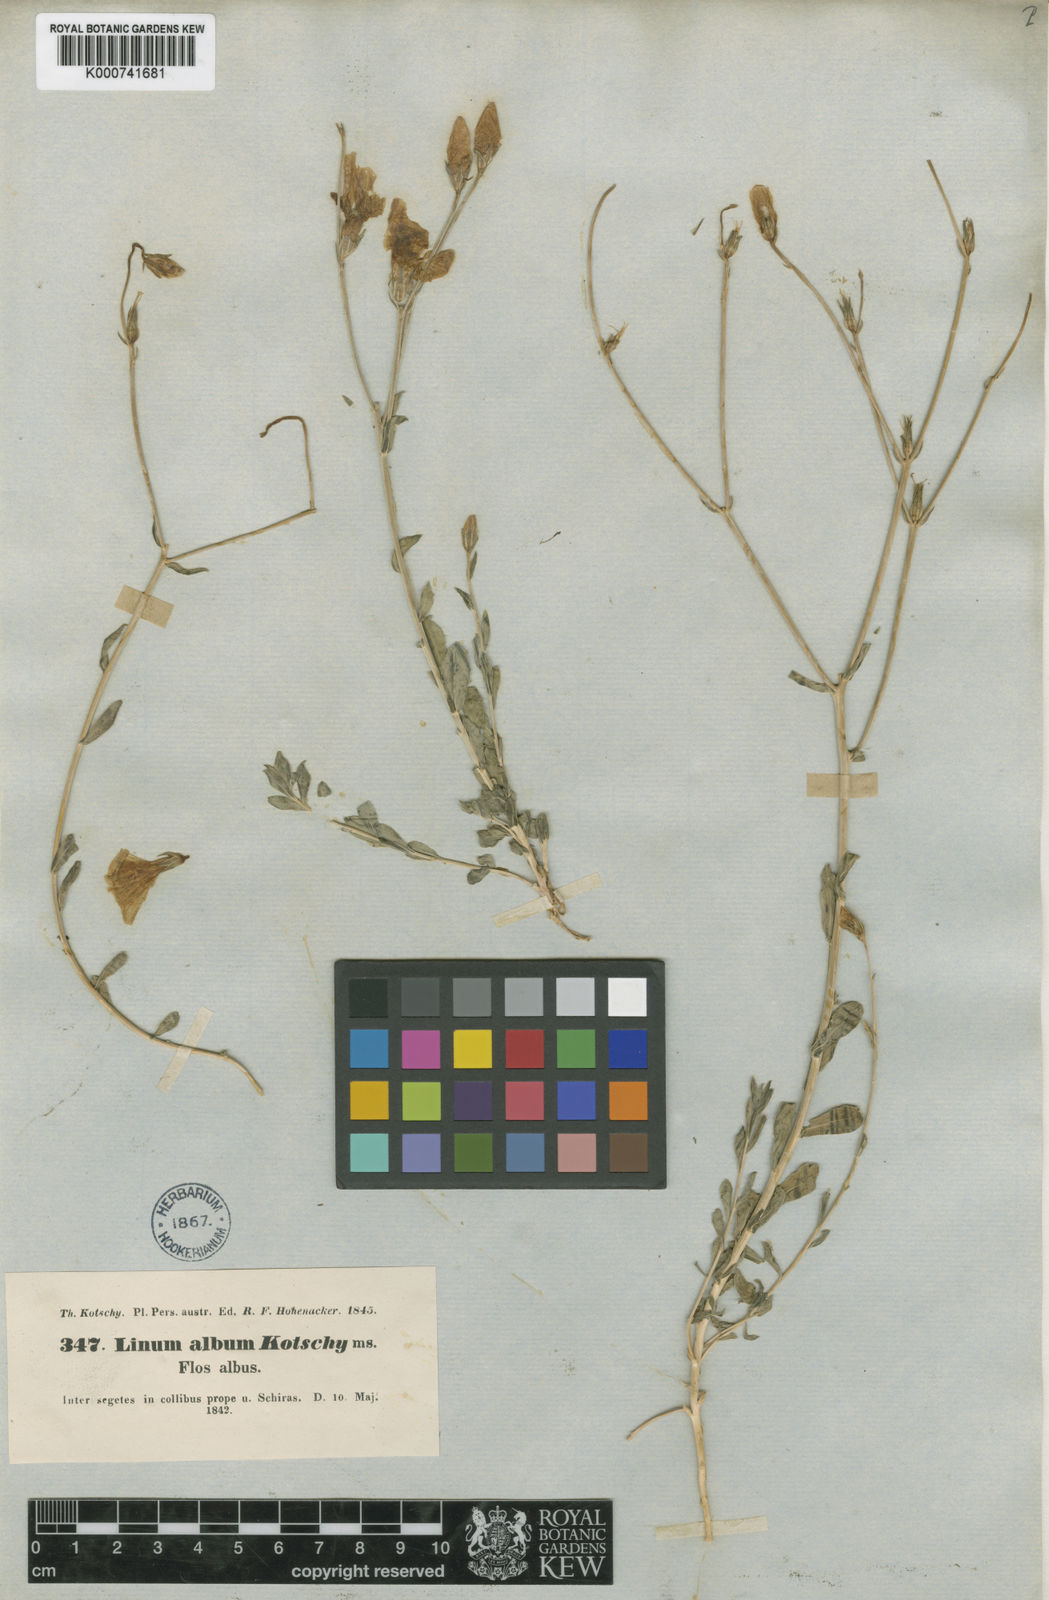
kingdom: Plantae
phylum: Tracheophyta
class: Magnoliopsida
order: Malpighiales
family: Linaceae
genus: Linum
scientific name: Linum album
